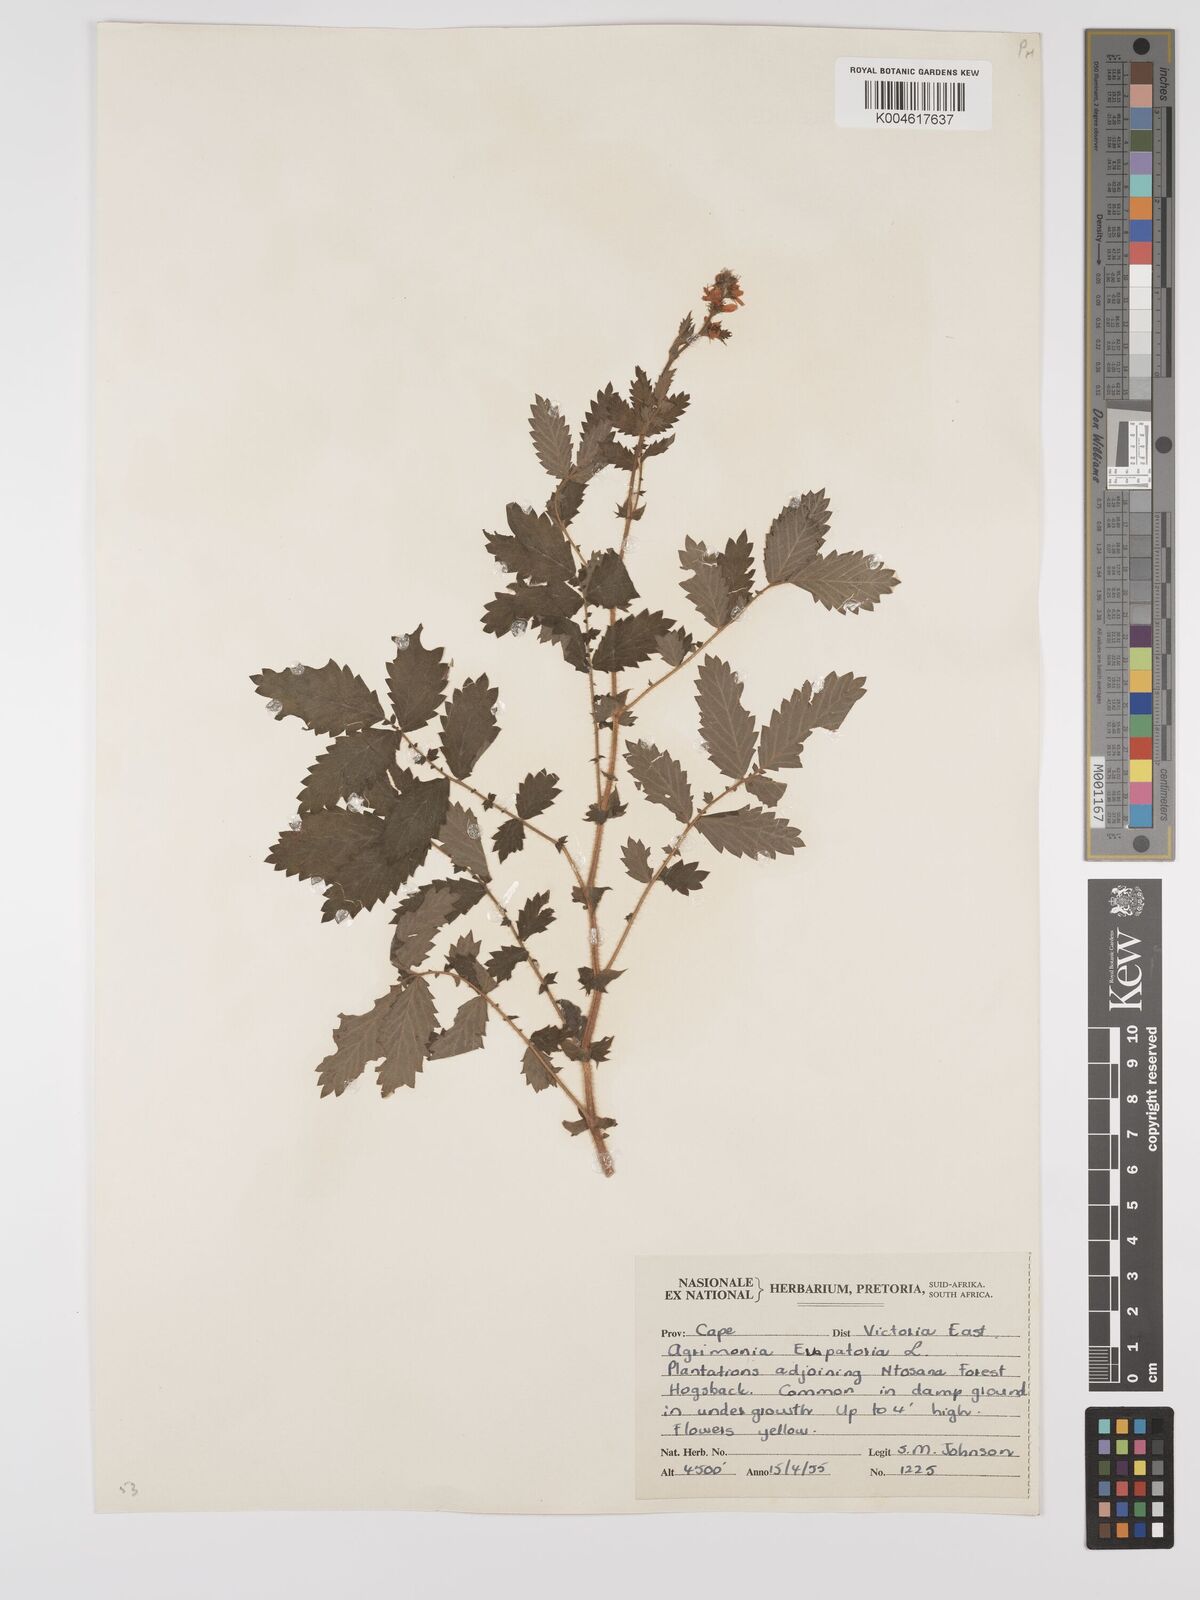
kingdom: Plantae
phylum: Tracheophyta
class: Magnoliopsida
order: Rosales
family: Rosaceae
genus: Agrimonia
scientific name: Agrimonia eupatoria
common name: Agrimony
